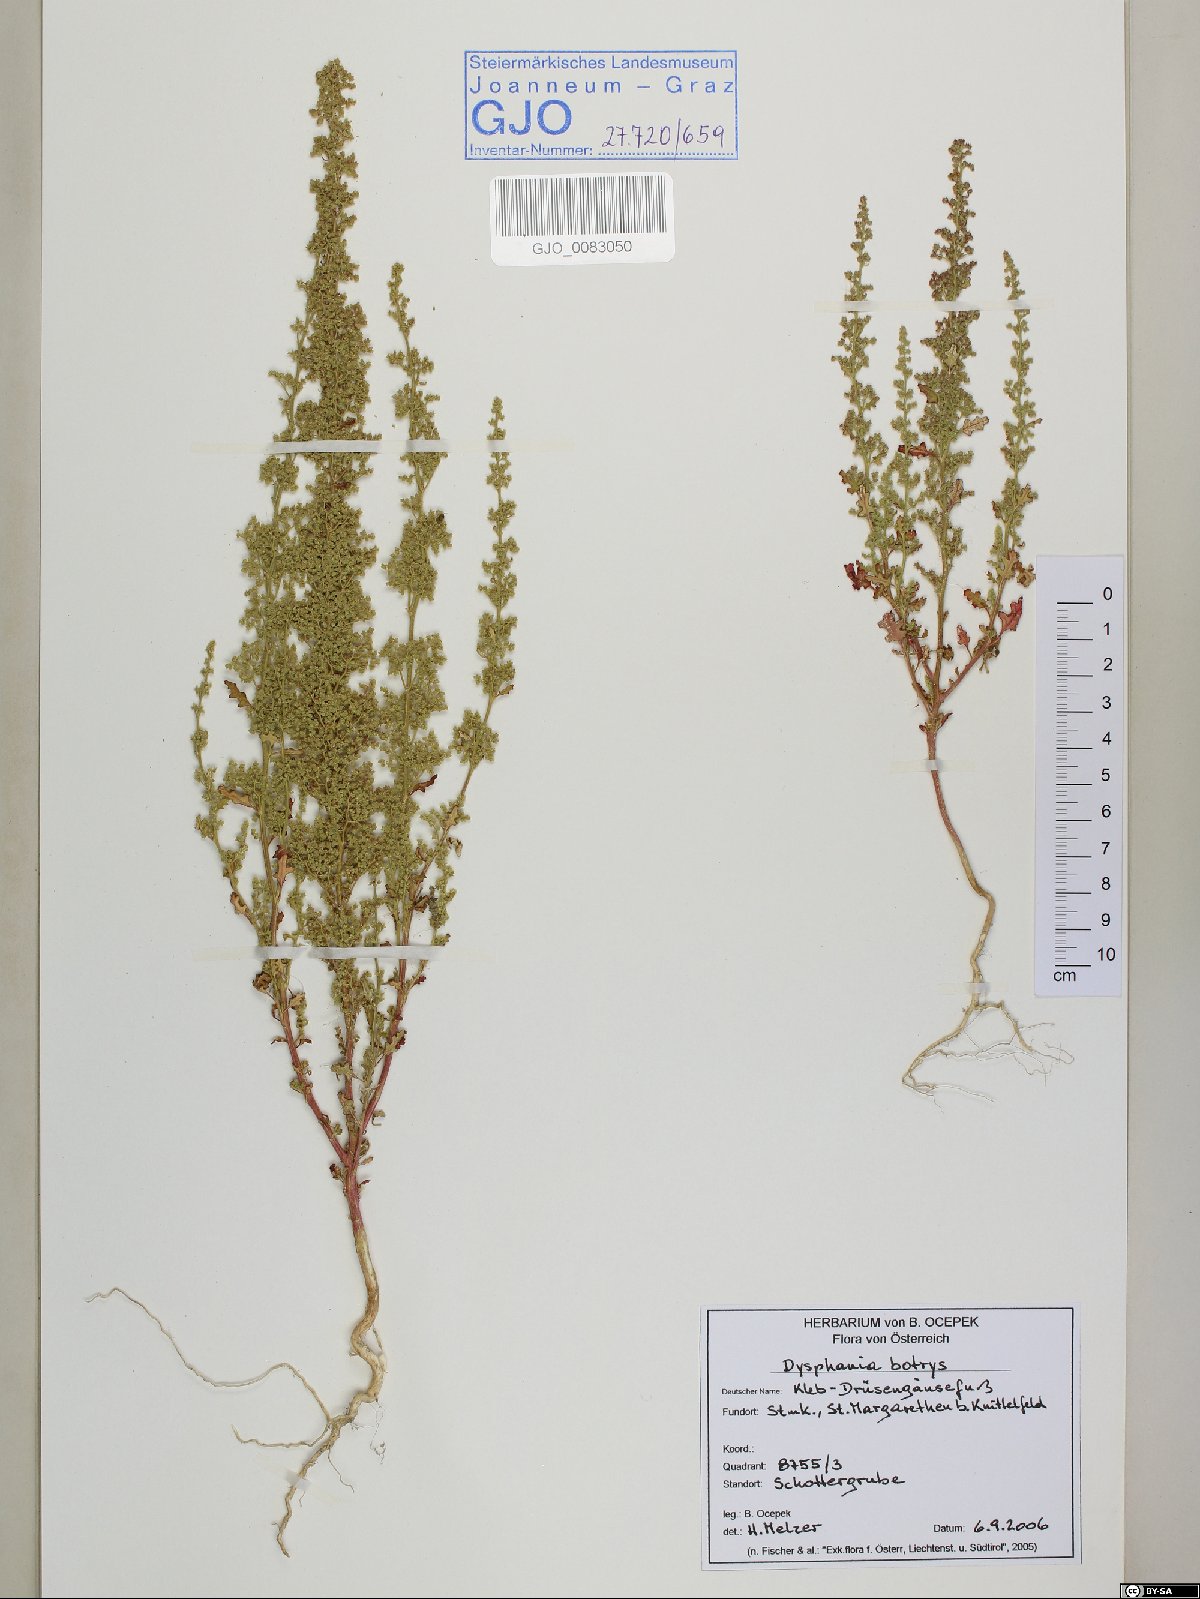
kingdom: Plantae
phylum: Tracheophyta
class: Magnoliopsida
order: Caryophyllales
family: Amaranthaceae
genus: Dysphania
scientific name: Dysphania botrys
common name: Feather-geranium
